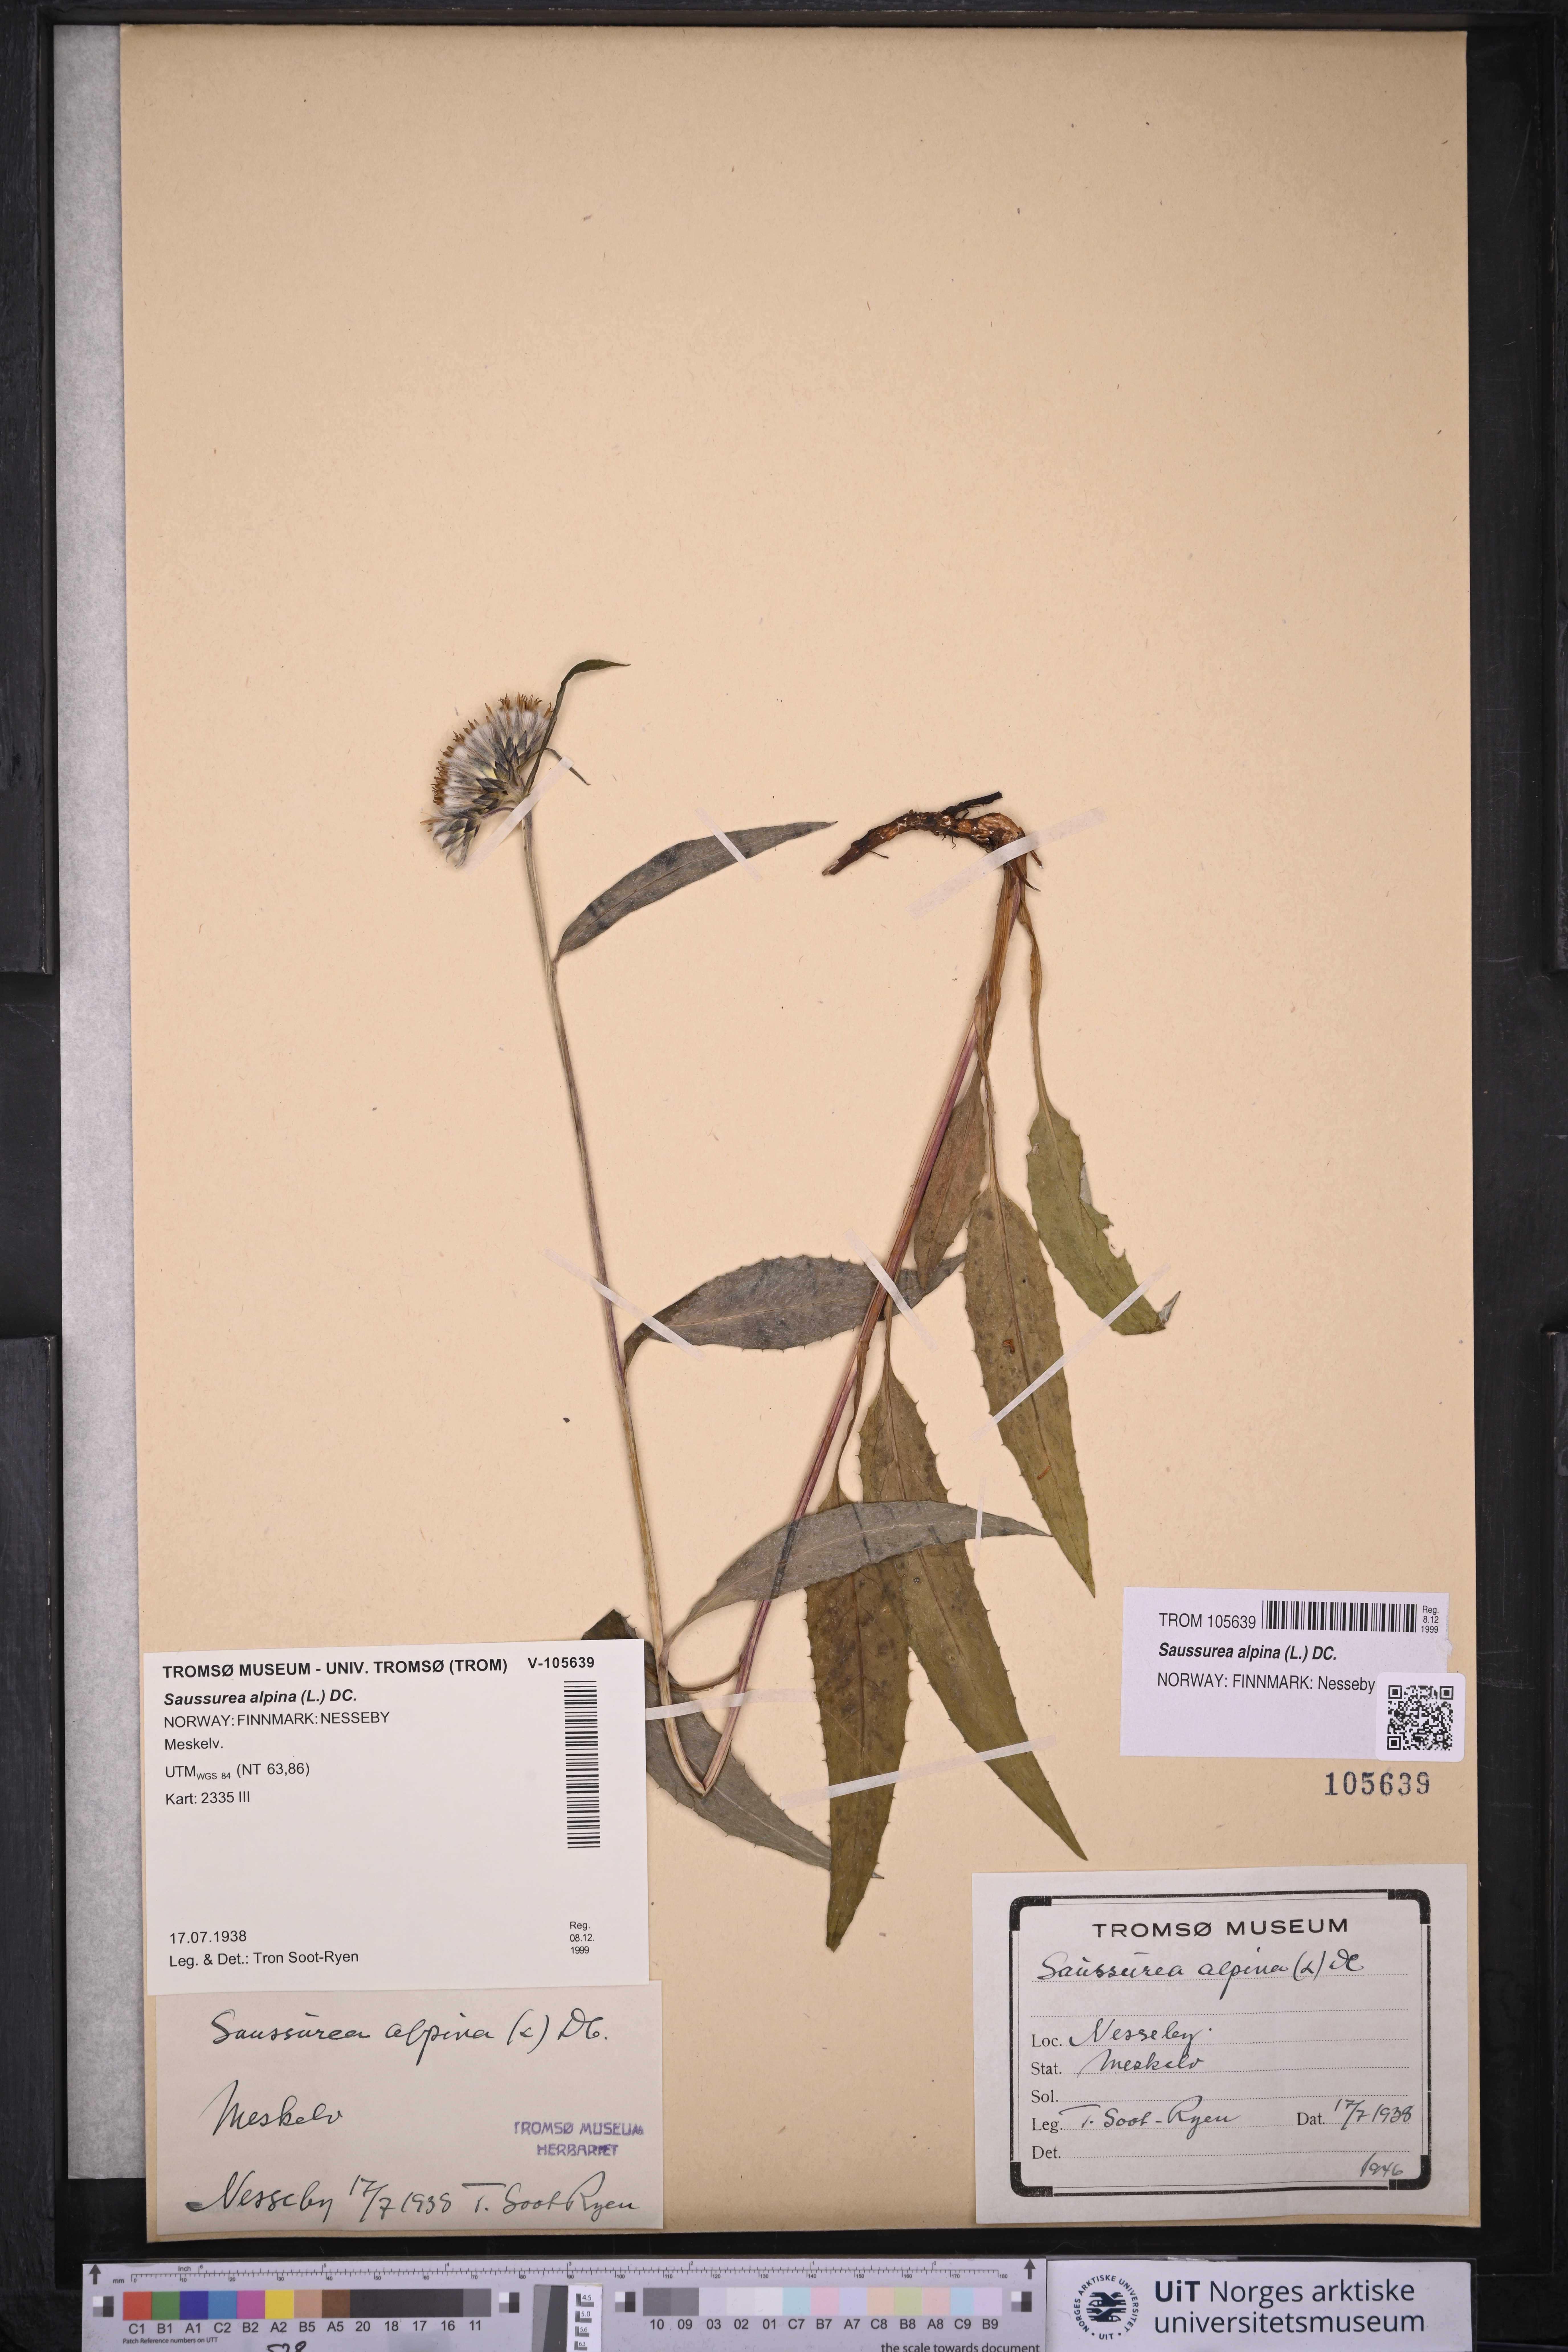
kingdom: Plantae
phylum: Tracheophyta
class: Magnoliopsida
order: Asterales
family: Asteraceae
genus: Saussurea
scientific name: Saussurea alpina
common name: Alpine saw-wort
